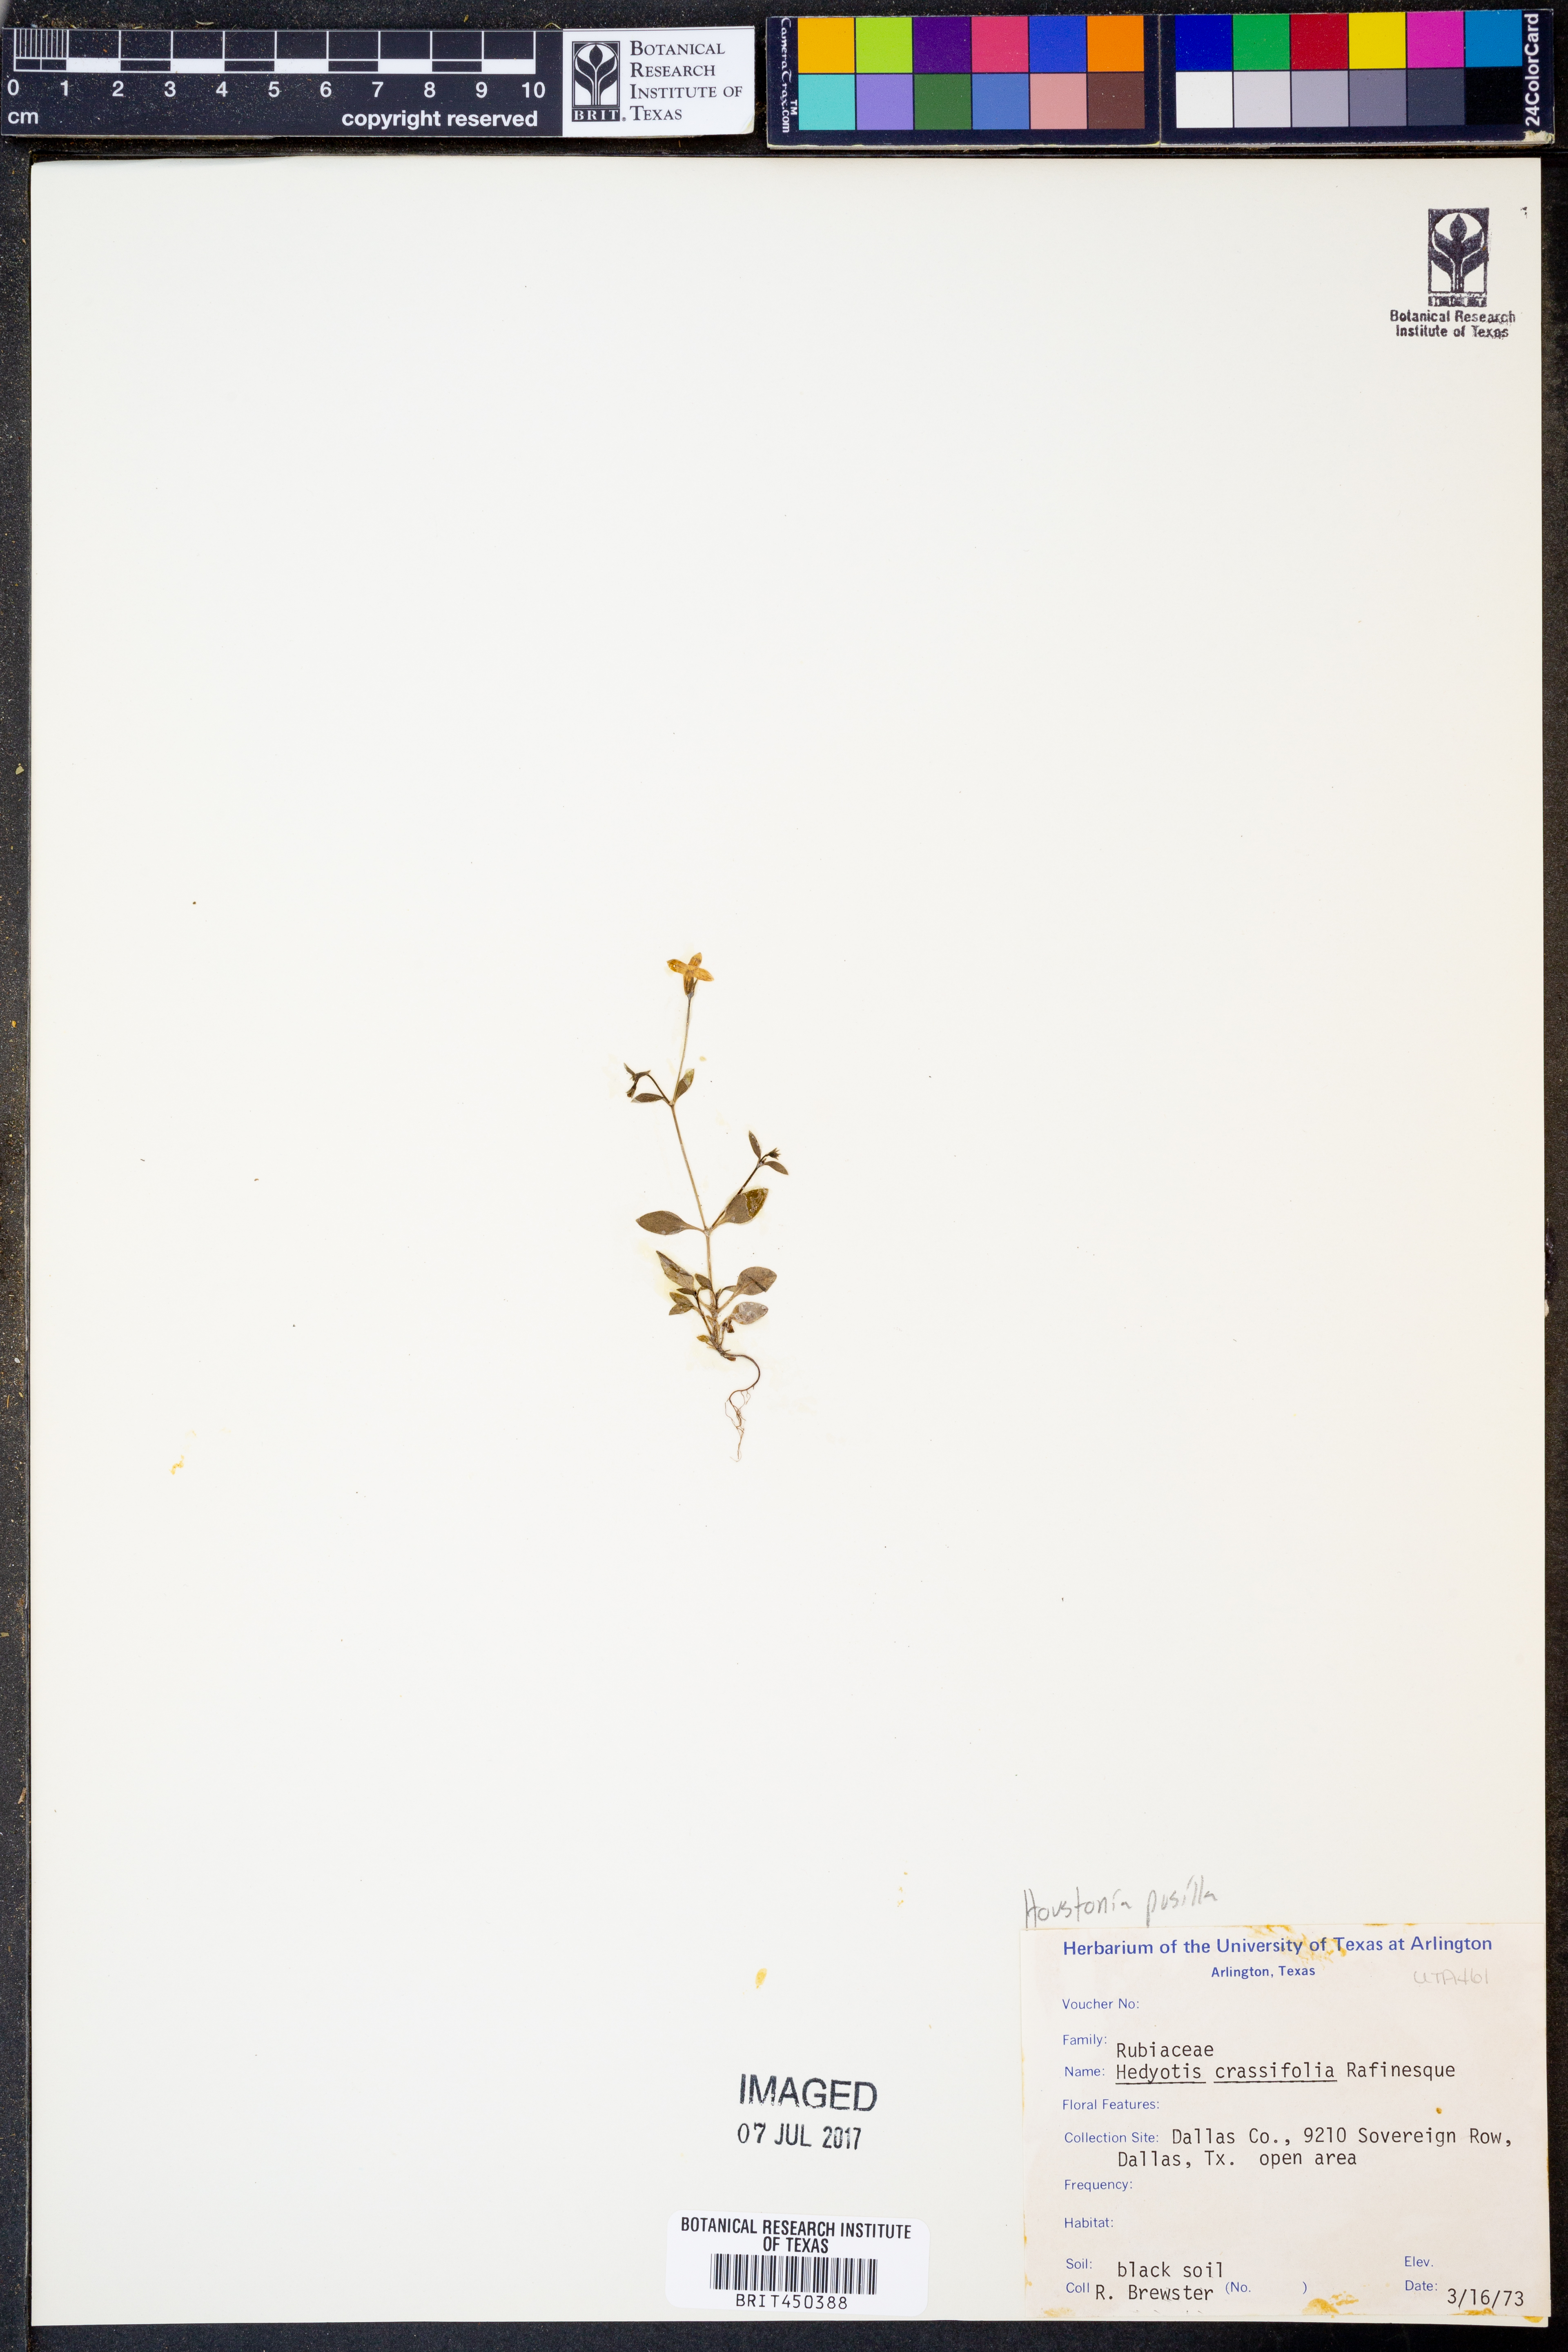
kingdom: Plantae
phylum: Tracheophyta
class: Magnoliopsida
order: Gentianales
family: Rubiaceae
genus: Oldenlandia
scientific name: Oldenlandia corymbosa
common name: Flat-top mille graines
